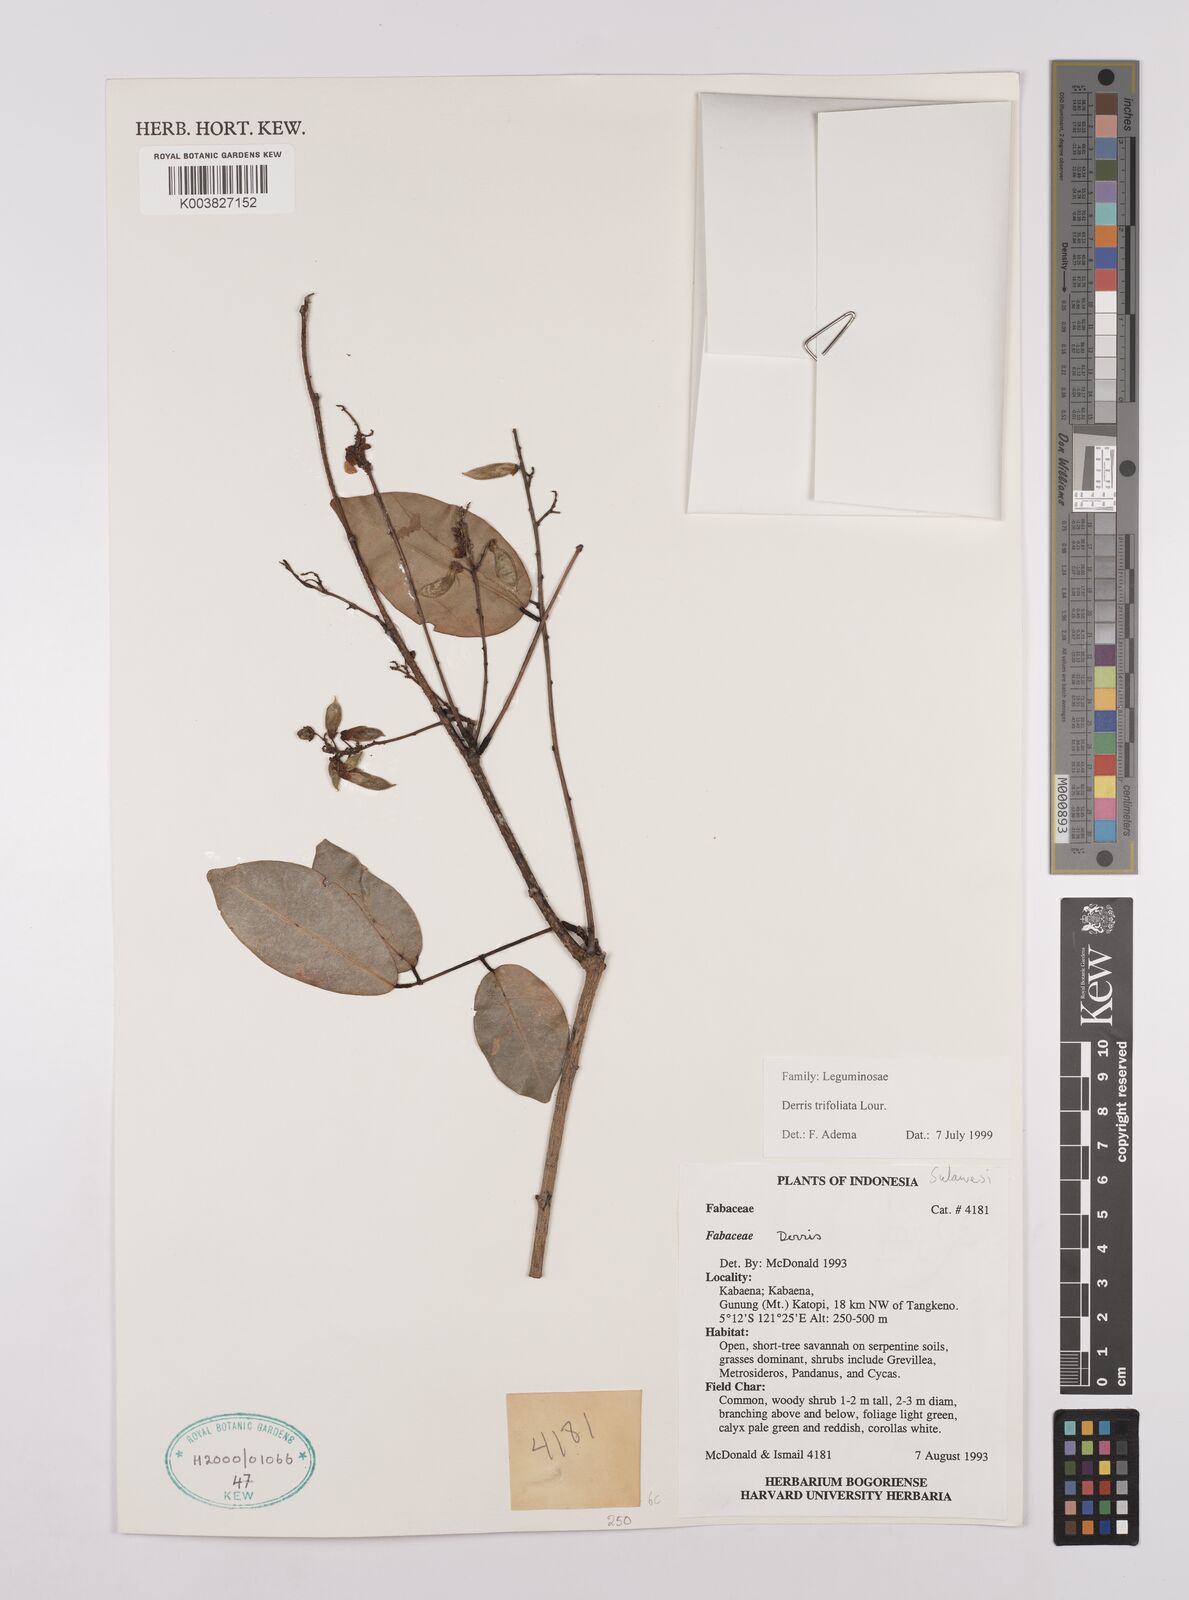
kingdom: Plantae
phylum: Tracheophyta
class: Magnoliopsida
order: Fabales
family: Fabaceae
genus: Derris
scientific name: Derris trifoliata
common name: Three-leaf derris
